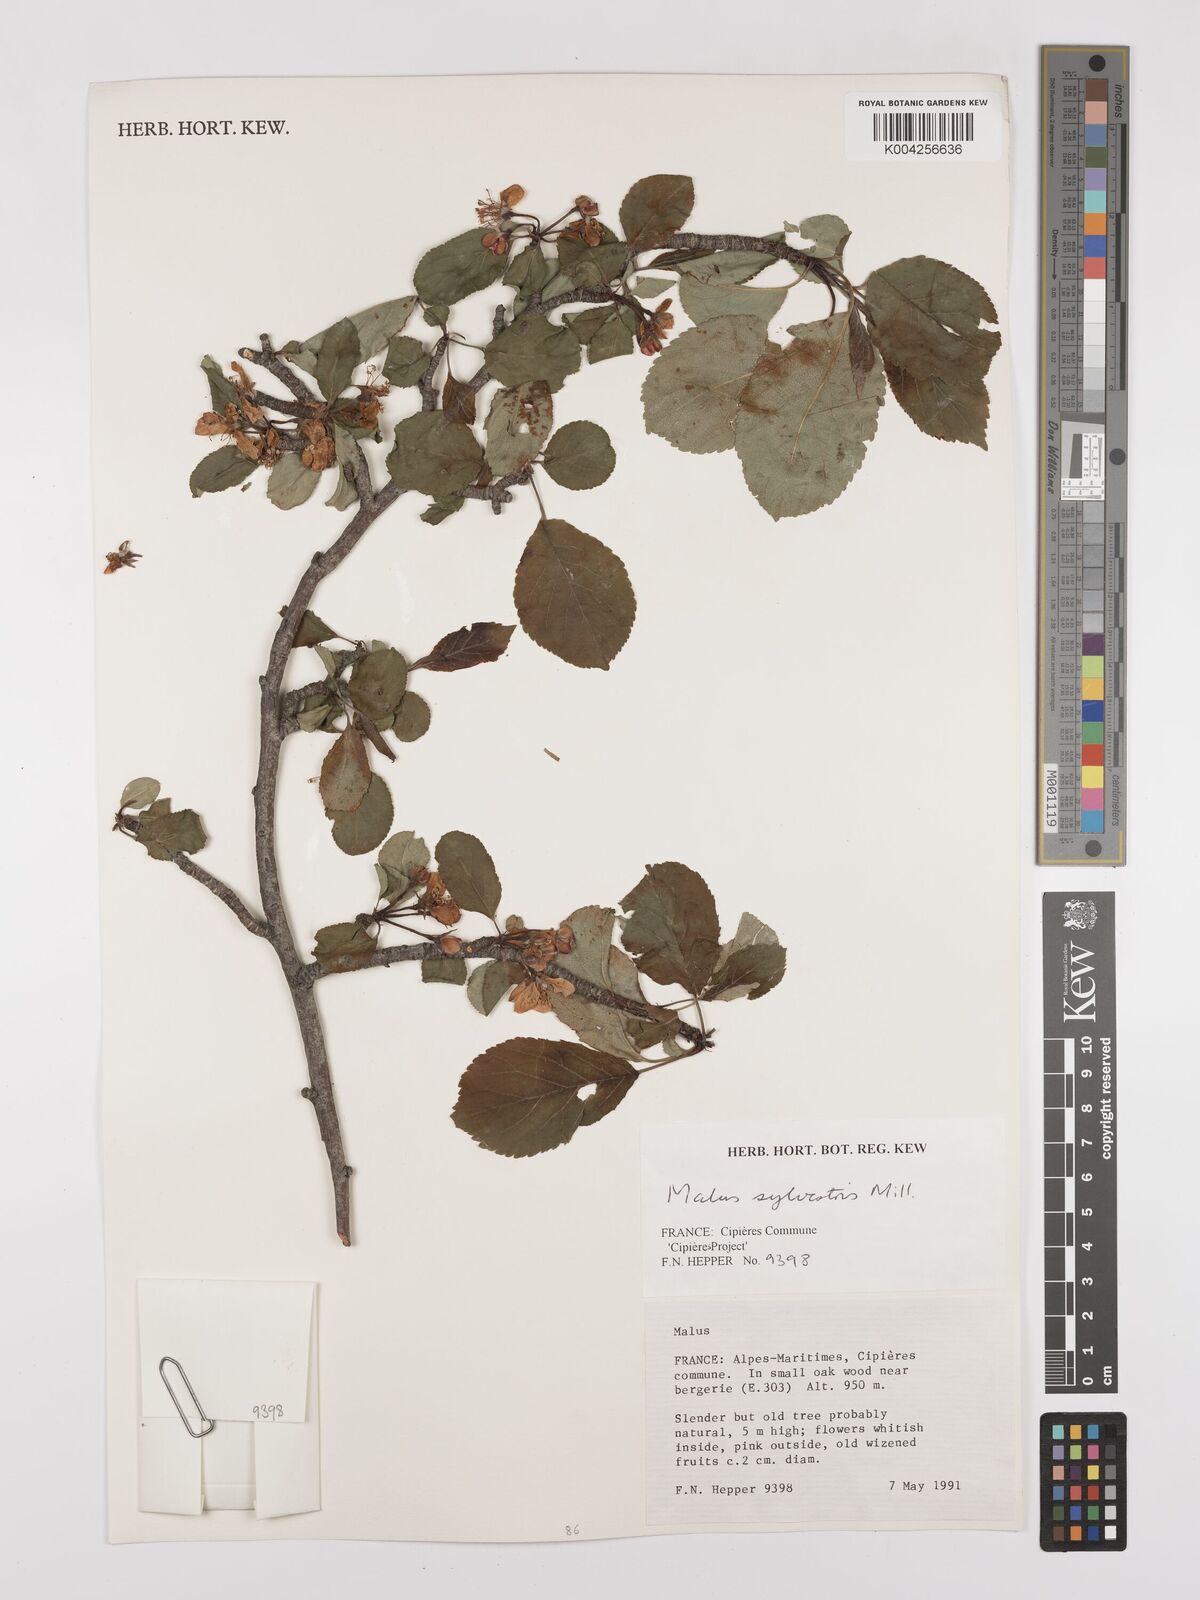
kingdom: Plantae
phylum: Tracheophyta
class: Magnoliopsida
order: Rosales
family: Rosaceae
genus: Malus
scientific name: Malus domestica
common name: Apple
